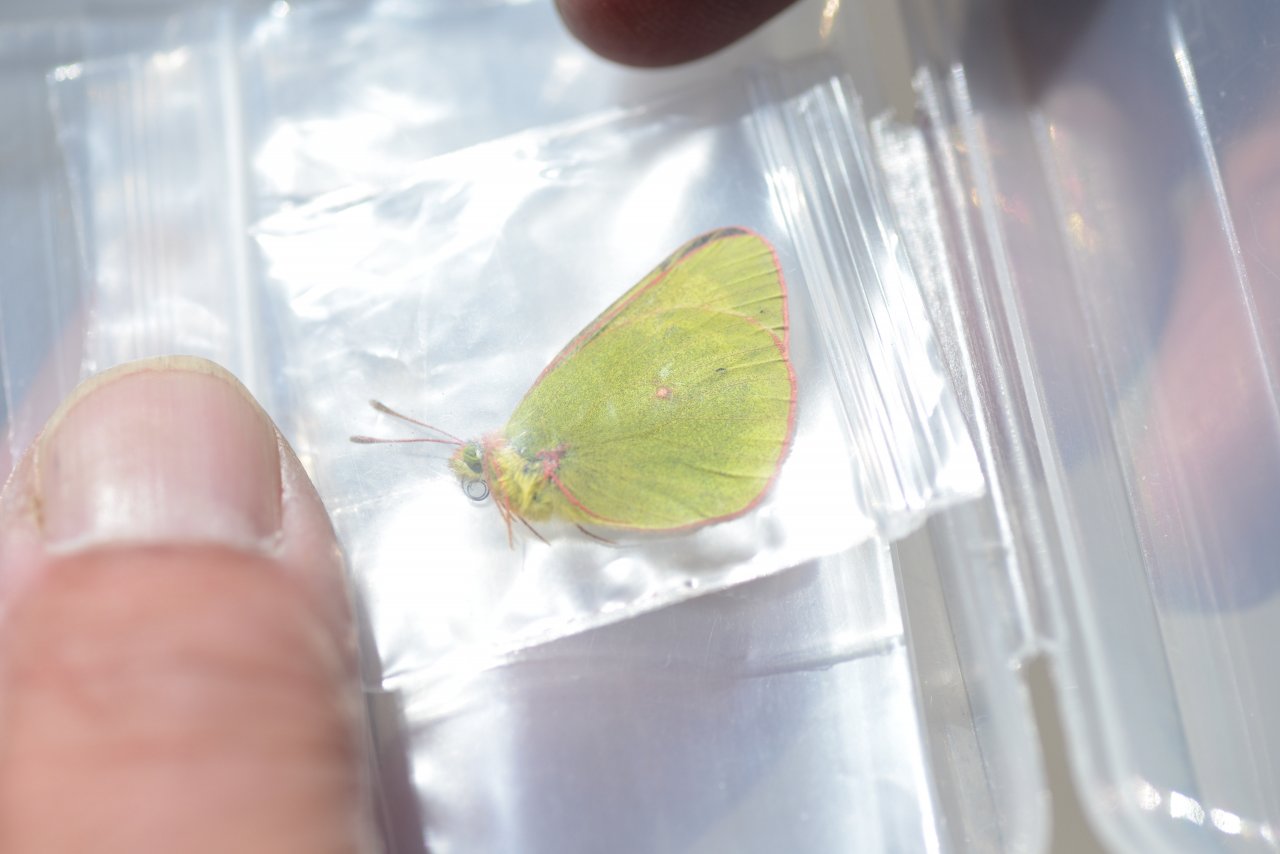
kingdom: Animalia
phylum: Arthropoda
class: Insecta
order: Lepidoptera
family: Pieridae
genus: Colias
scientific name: Colias pelidne
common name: Pelidne Sulphur
